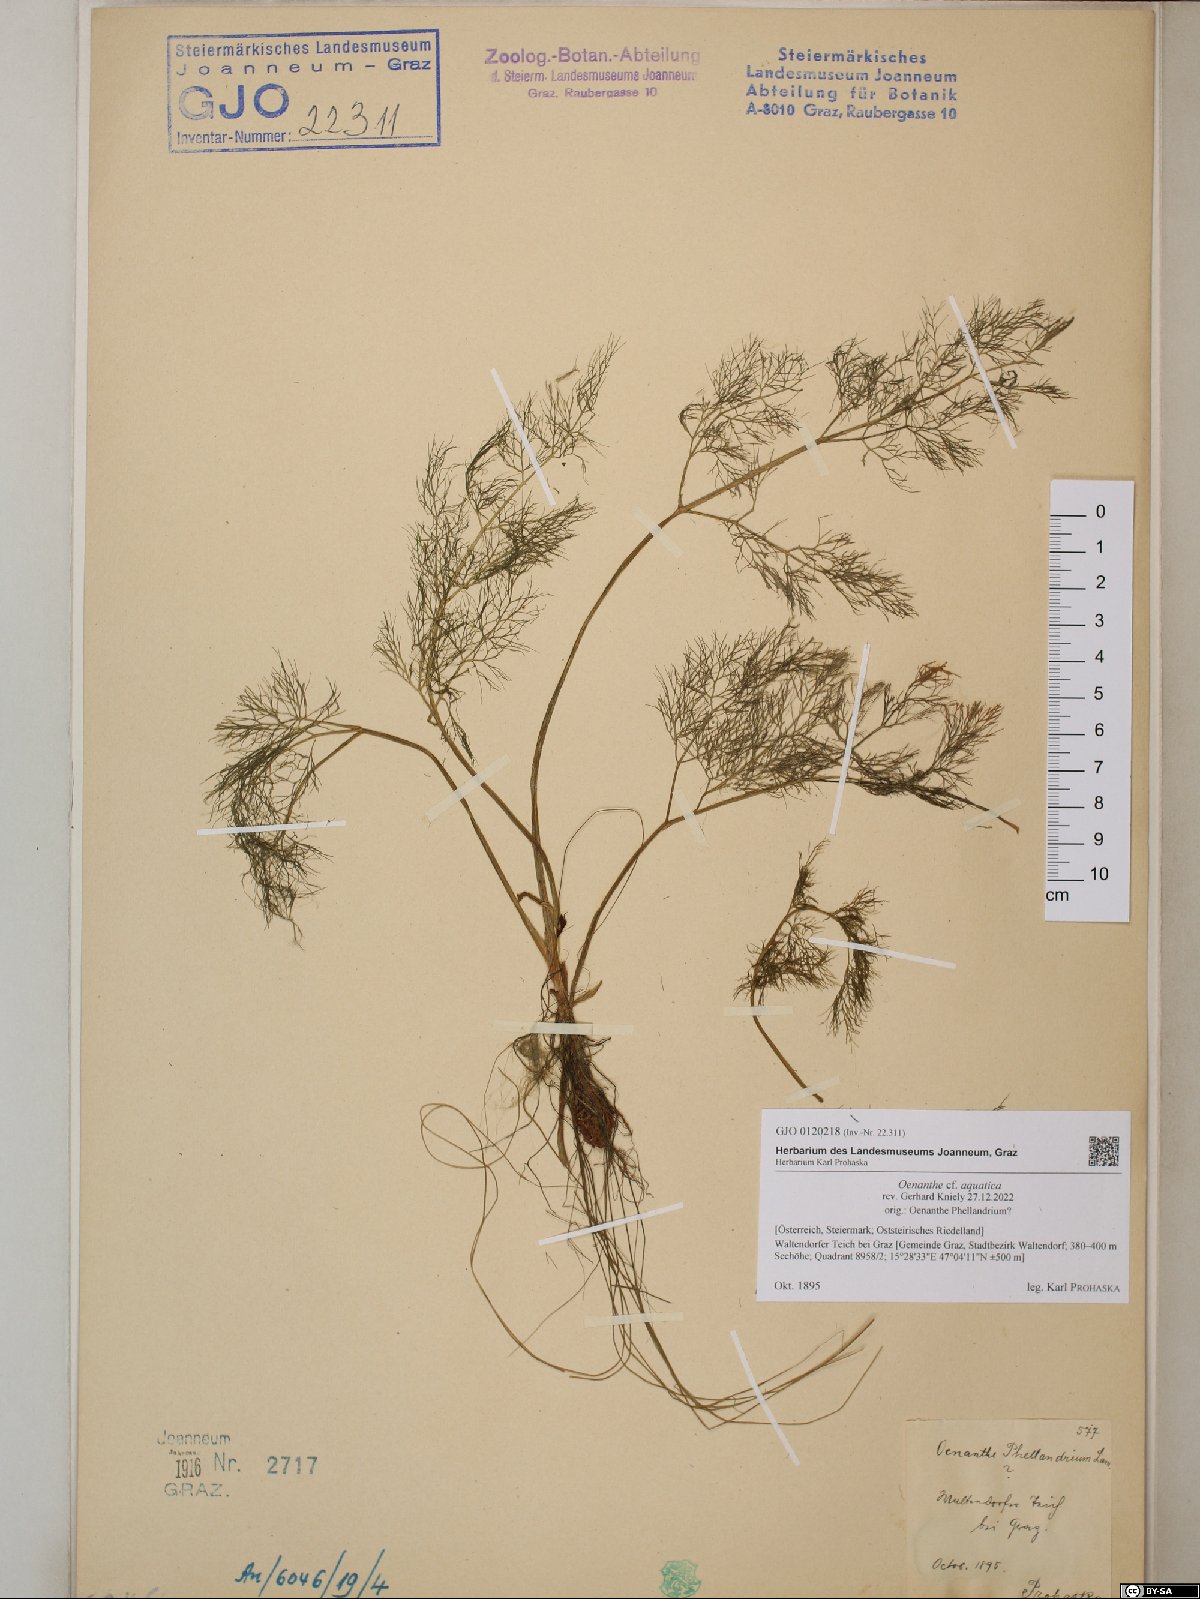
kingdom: Plantae
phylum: Tracheophyta
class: Magnoliopsida
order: Apiales
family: Apiaceae
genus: Oenanthe
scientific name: Oenanthe aquatica
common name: Fine-leaved water-dropwort
